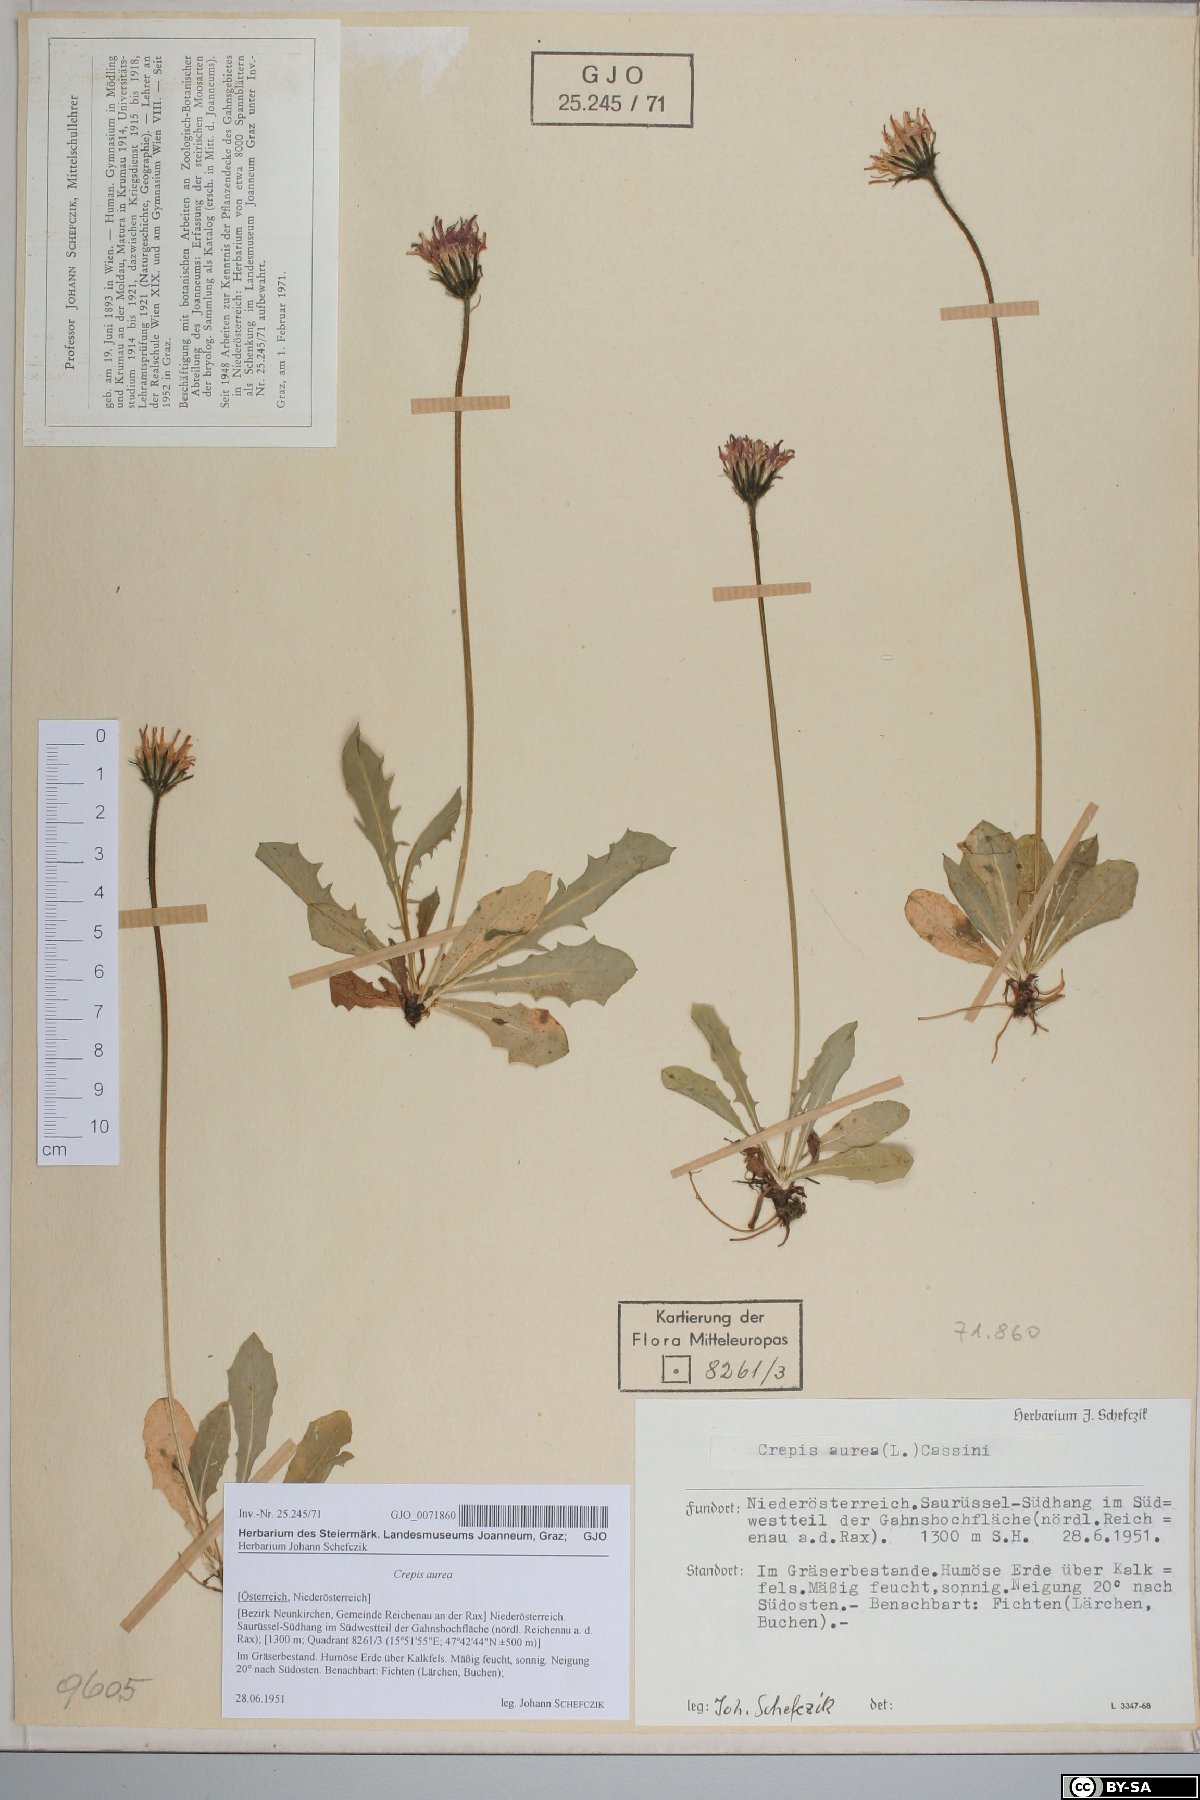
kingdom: Plantae
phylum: Tracheophyta
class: Magnoliopsida
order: Asterales
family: Asteraceae
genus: Crepis
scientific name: Crepis aurea
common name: Golden hawk's-beard
